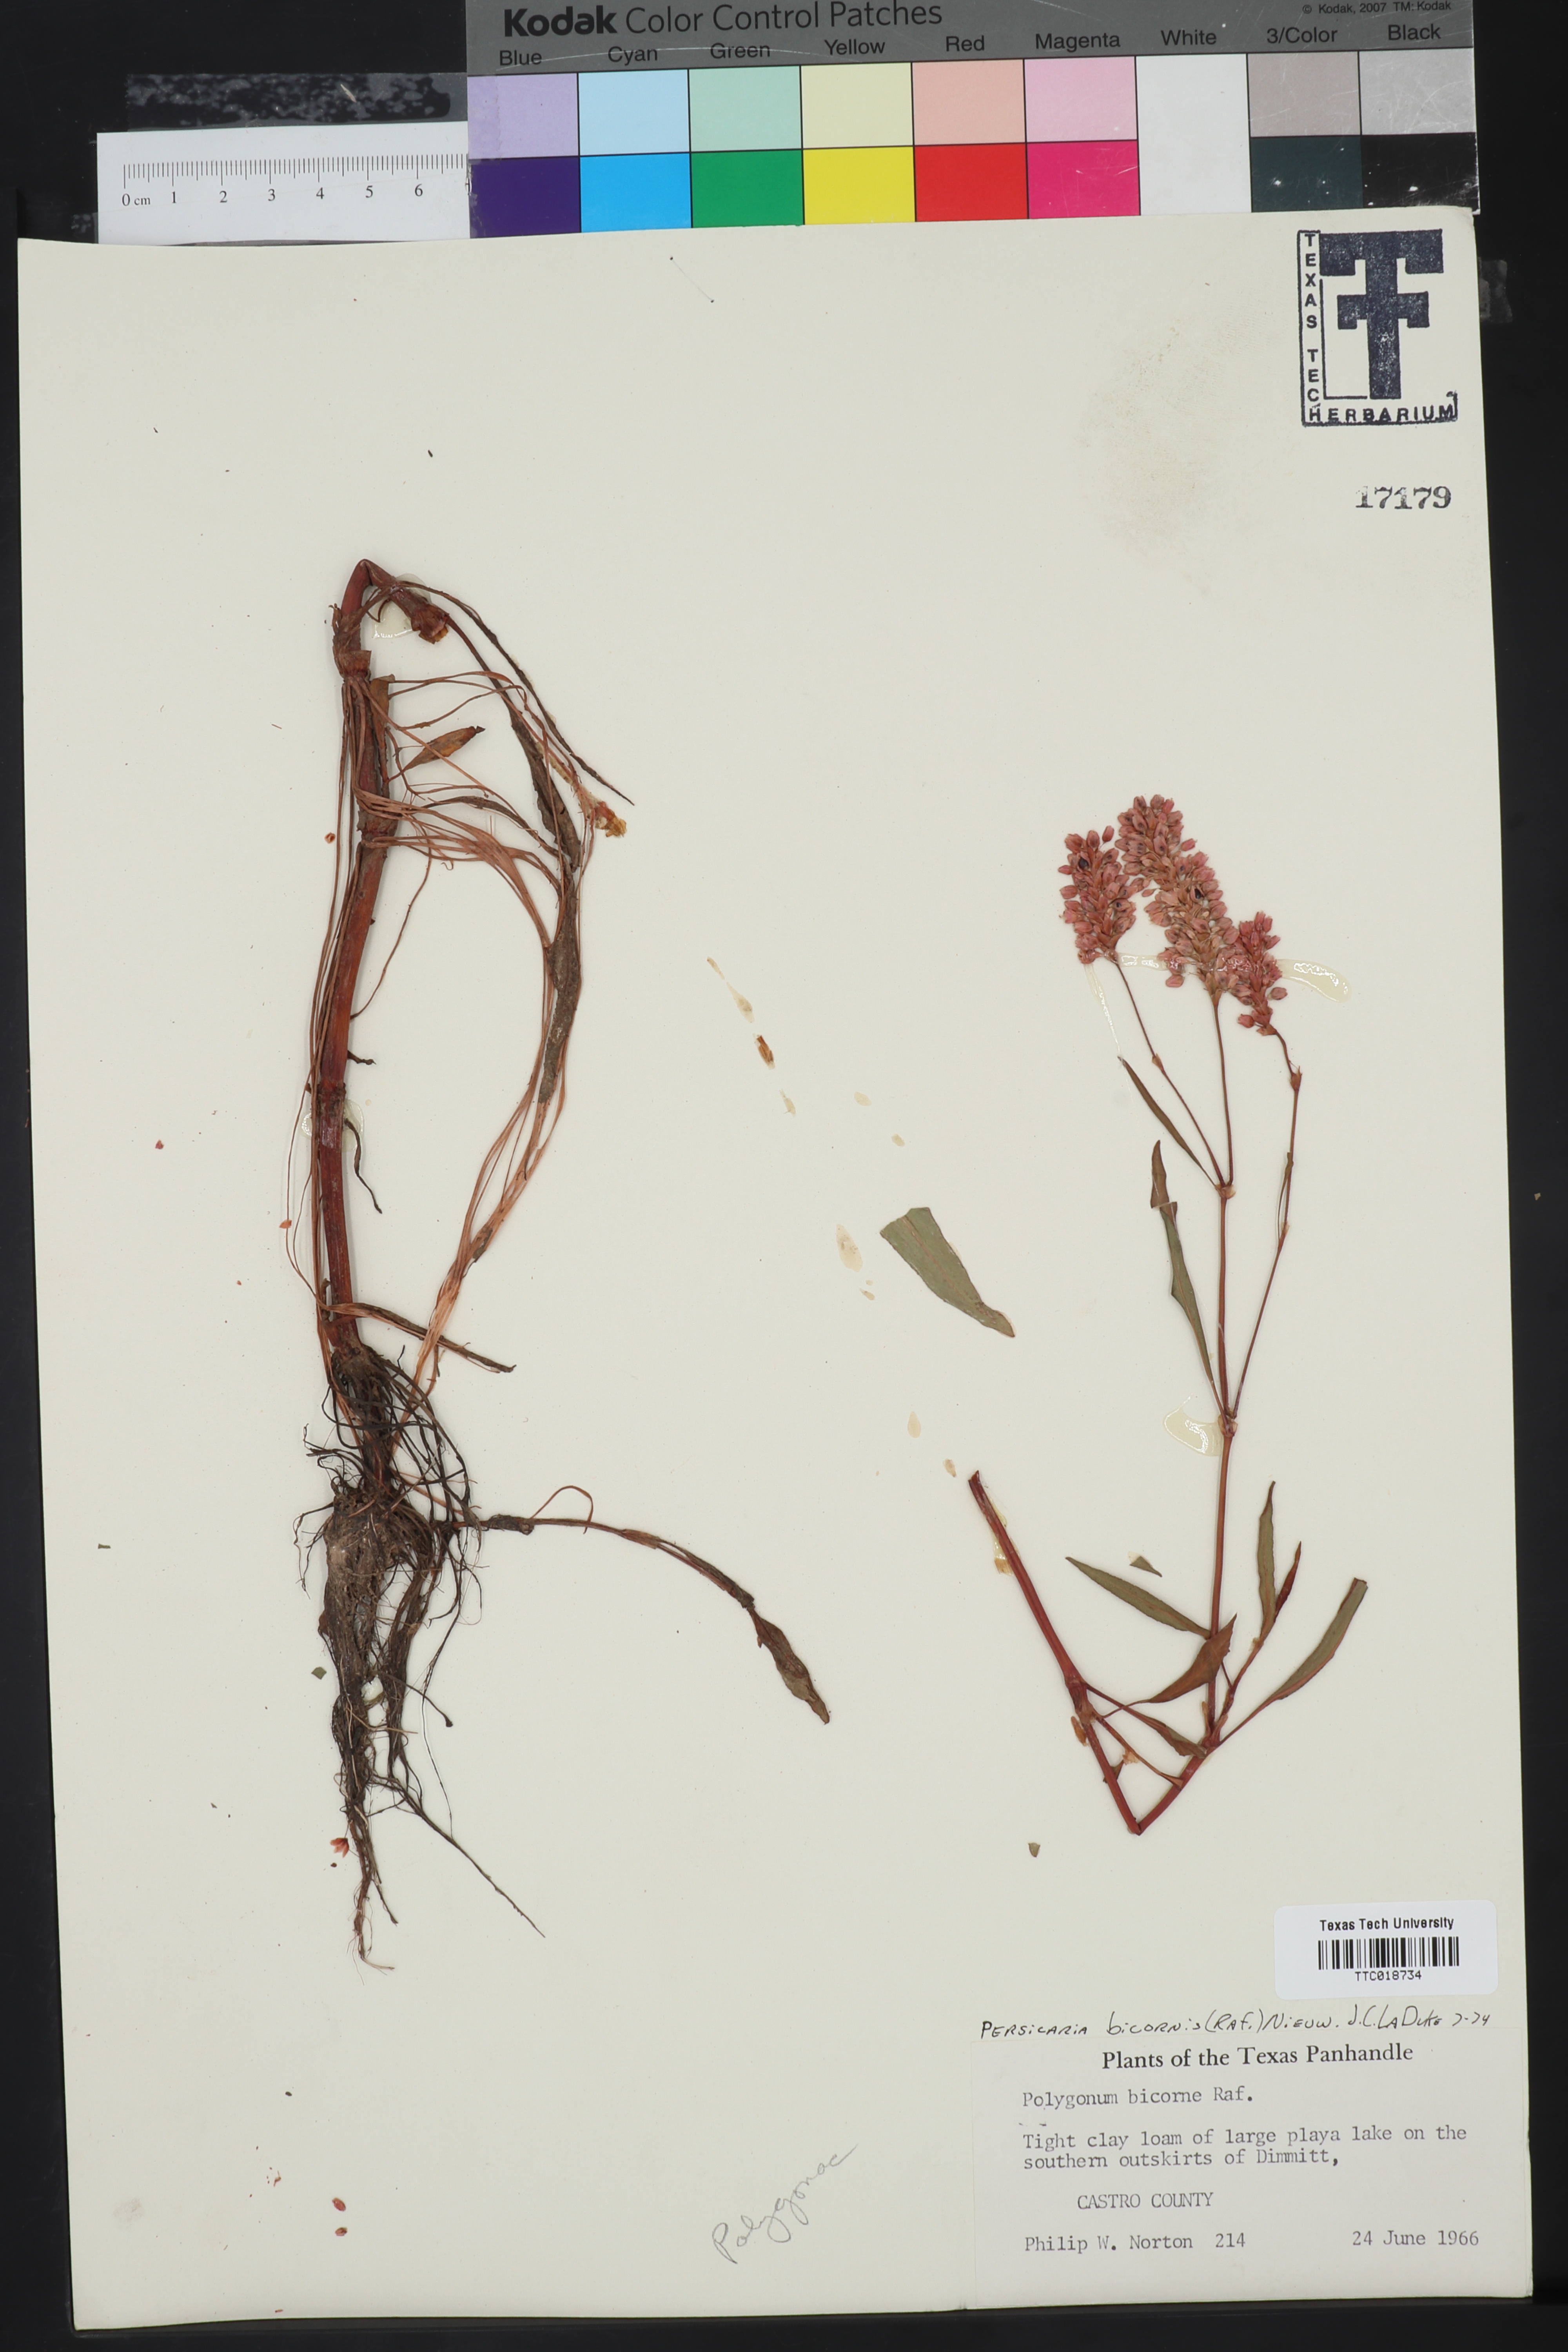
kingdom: Plantae
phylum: Tracheophyta
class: Magnoliopsida
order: Caryophyllales
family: Polygonaceae
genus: Persicaria
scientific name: Persicaria bicornis
